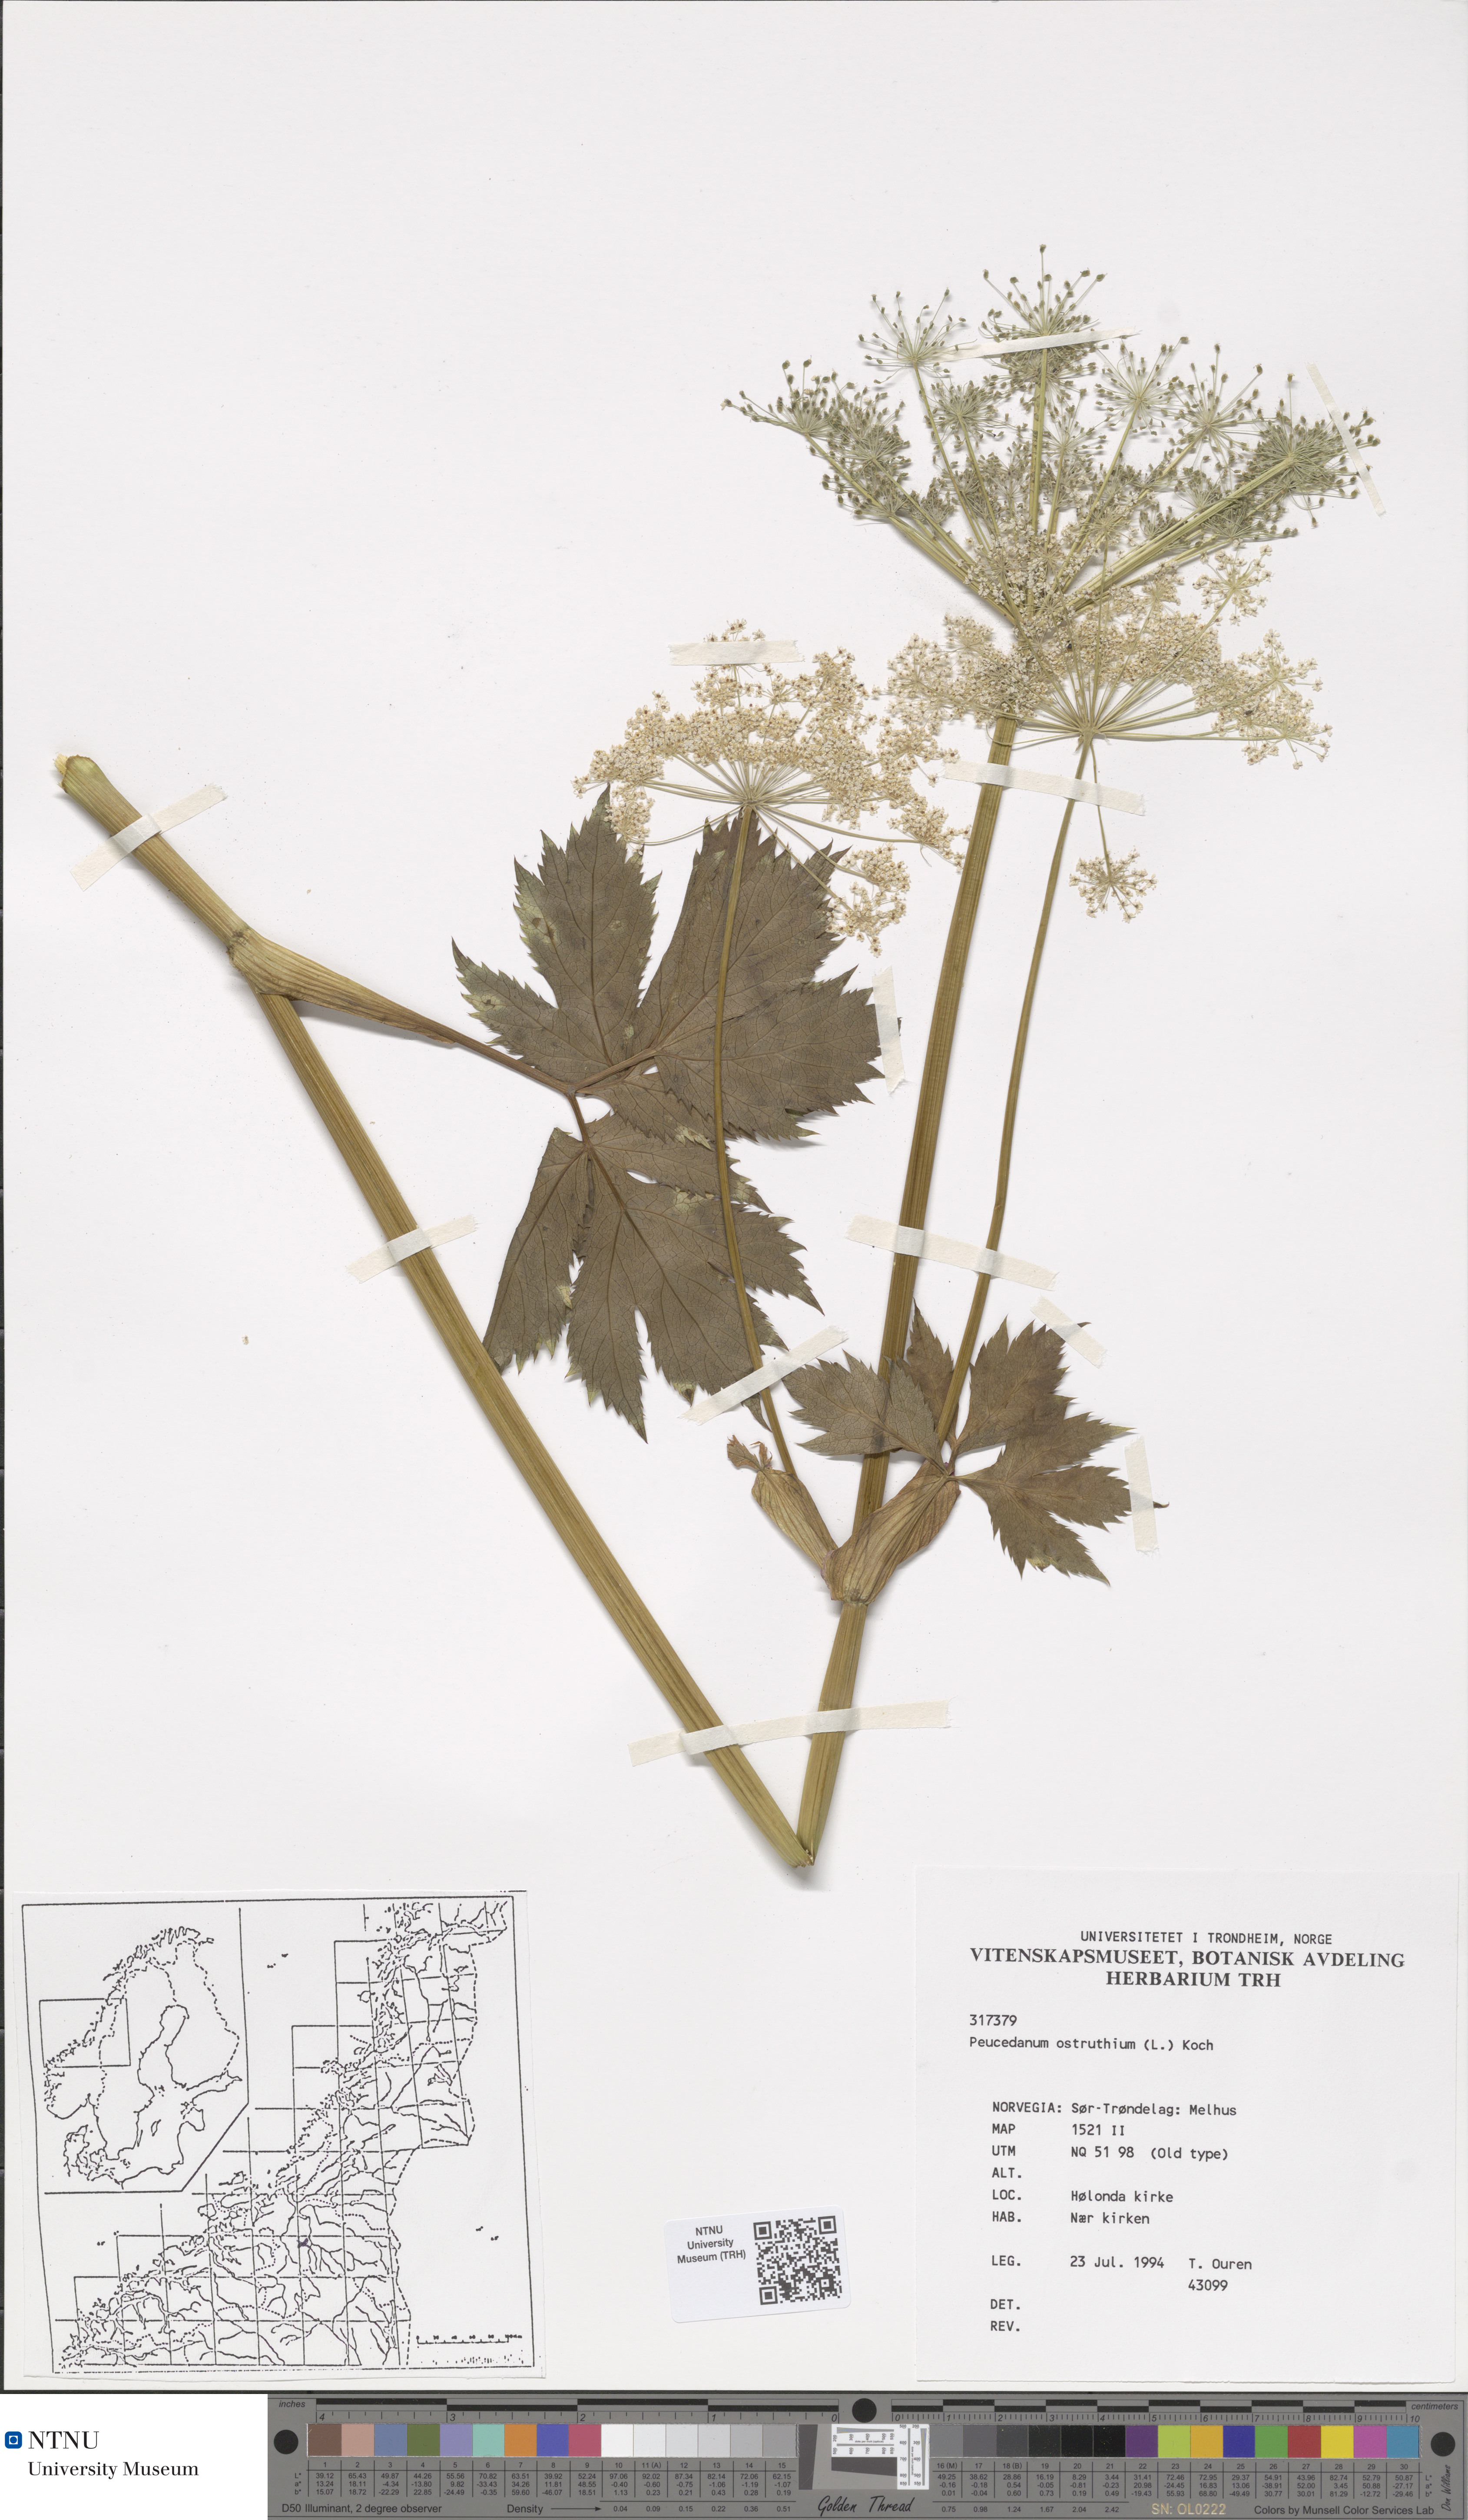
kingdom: Plantae
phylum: Tracheophyta
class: Magnoliopsida
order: Apiales
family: Apiaceae
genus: Imperatoria
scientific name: Imperatoria ostruthium
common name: Masterwort
